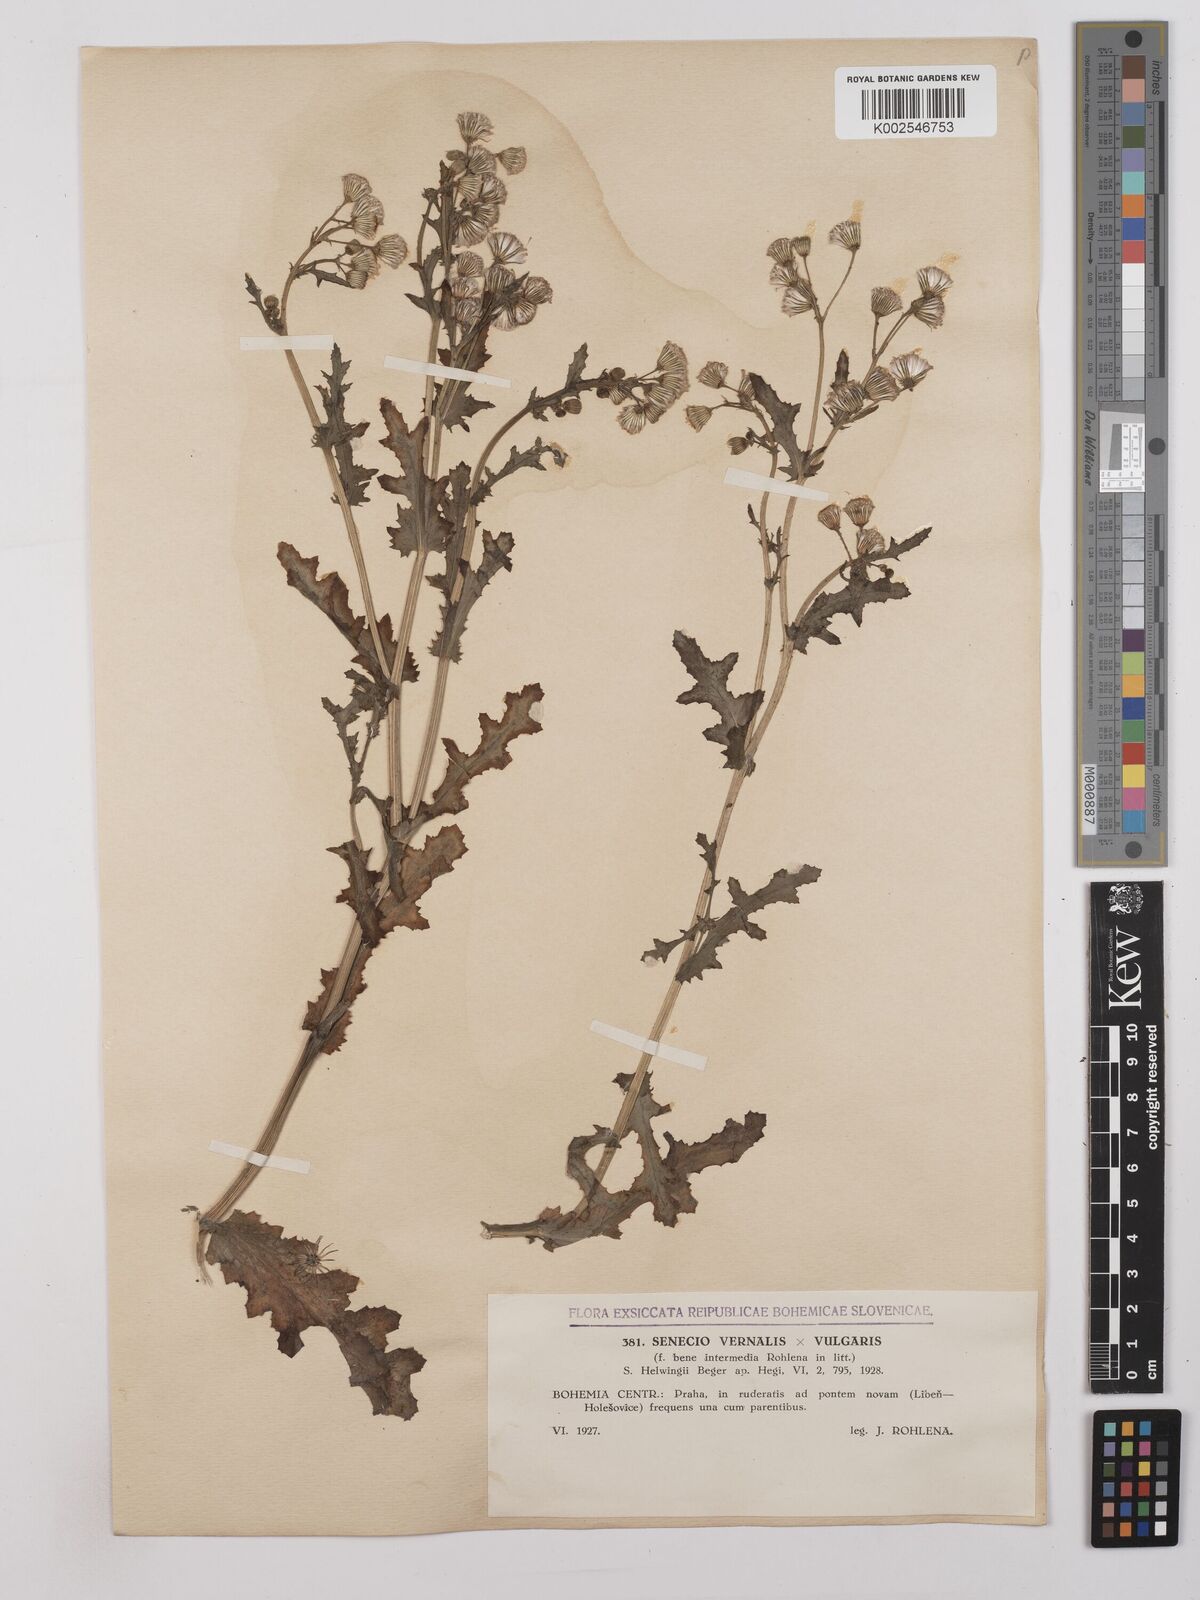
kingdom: Plantae
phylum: Tracheophyta
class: Magnoliopsida
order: Asterales
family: Asteraceae
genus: Senecio
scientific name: Senecio vernalis
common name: Eastern groundsel
